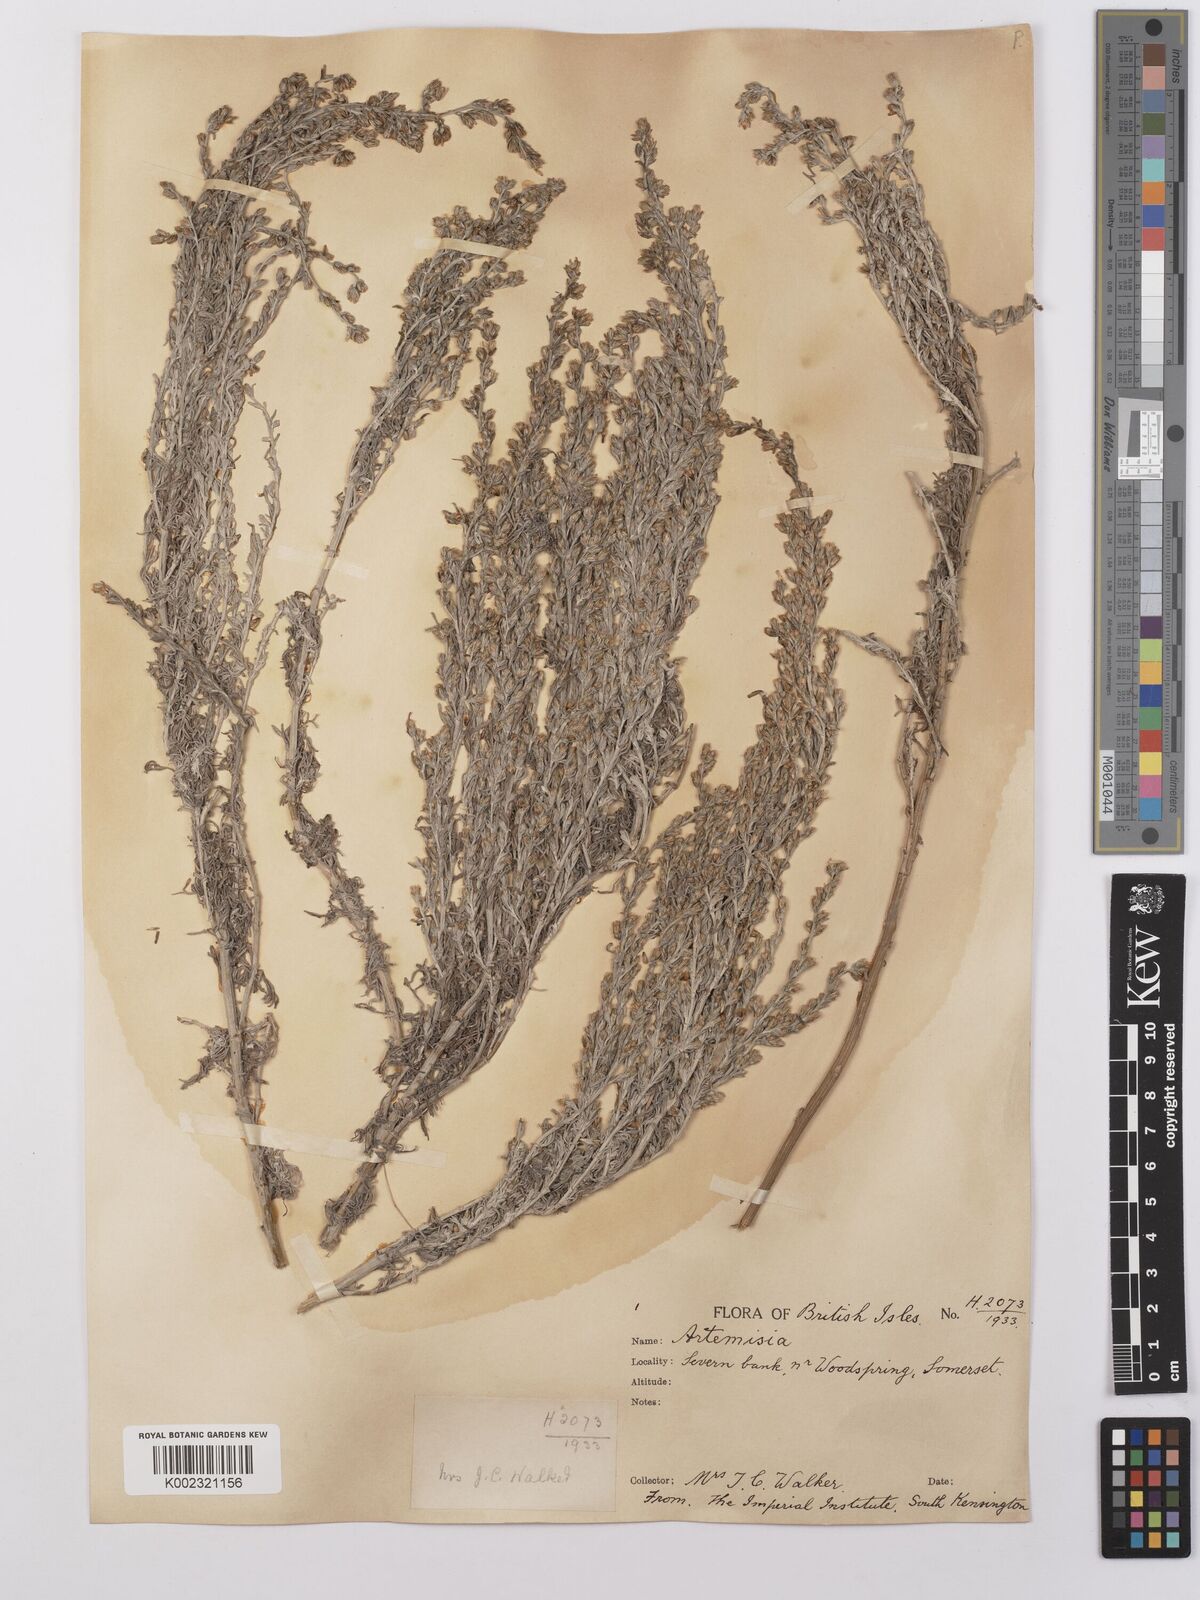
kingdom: Plantae
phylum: Tracheophyta
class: Magnoliopsida
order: Asterales
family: Asteraceae
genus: Artemisia
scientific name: Artemisia maritima
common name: Wormseed
